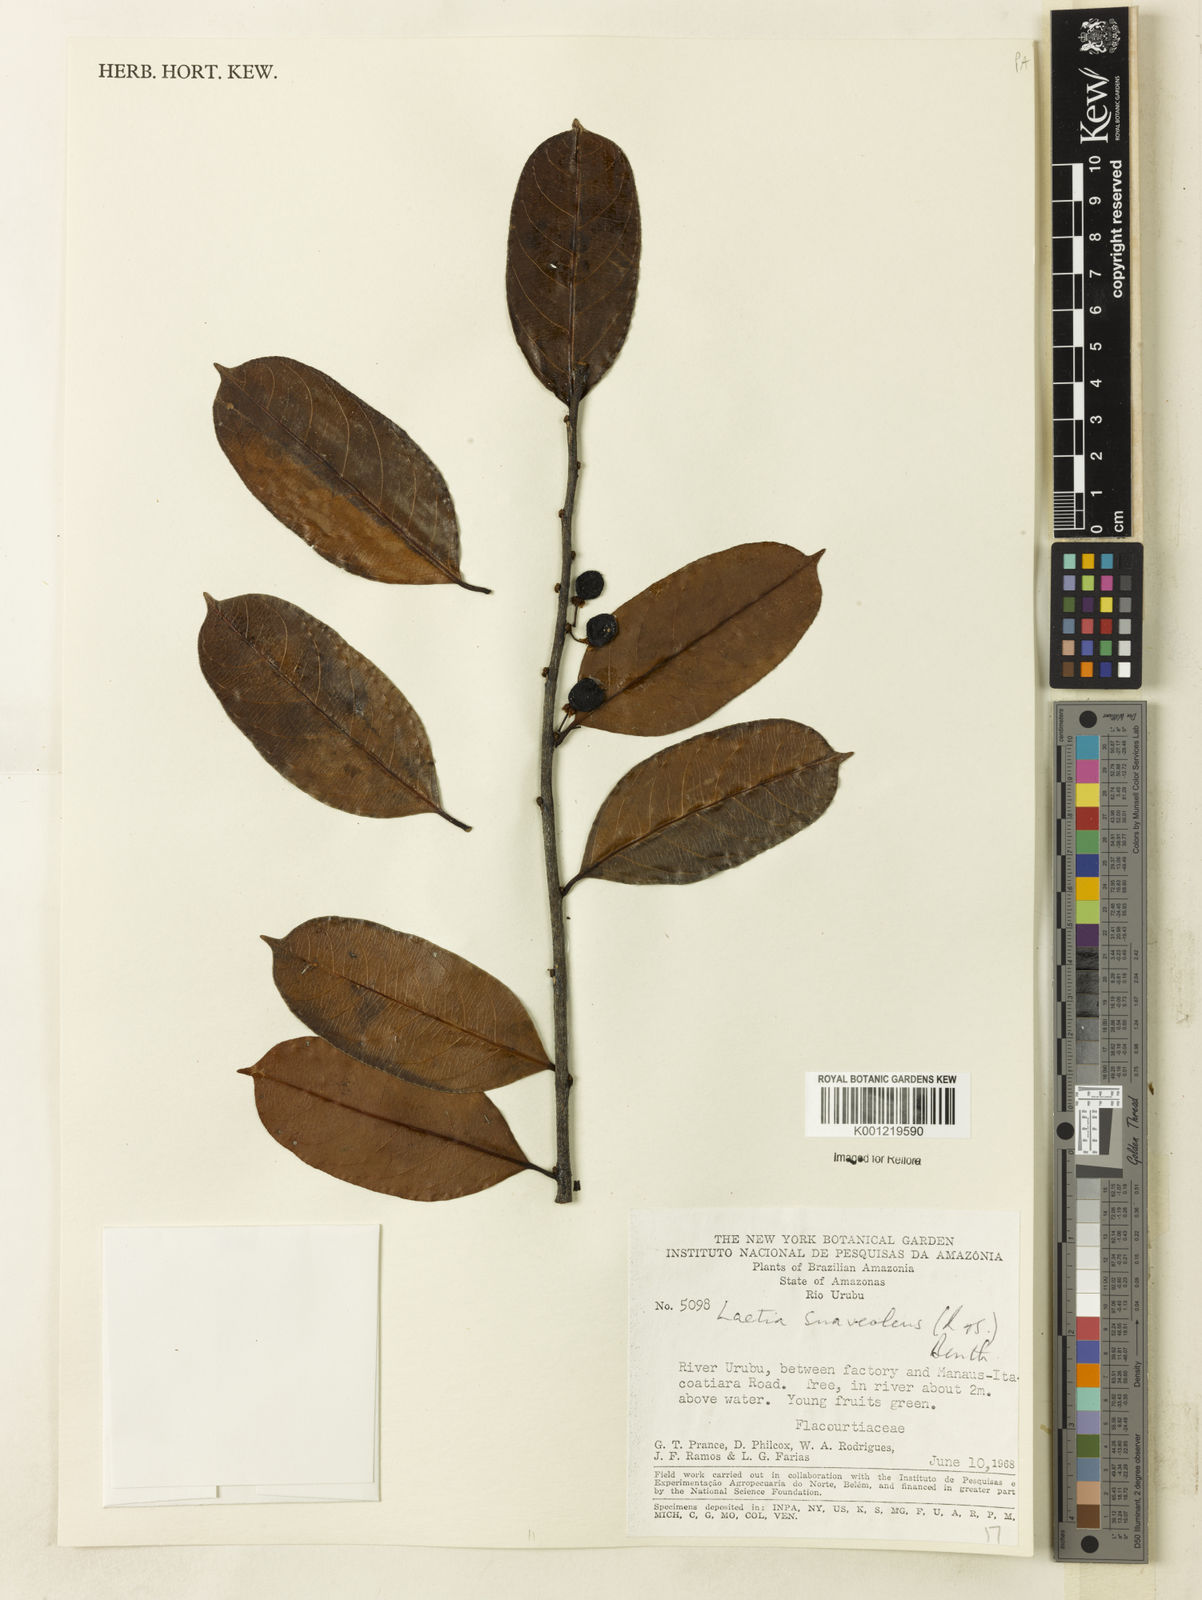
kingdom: Plantae
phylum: Tracheophyta
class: Magnoliopsida
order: Malpighiales
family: Salicaceae
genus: Casearia
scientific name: Casearia suaveolens
